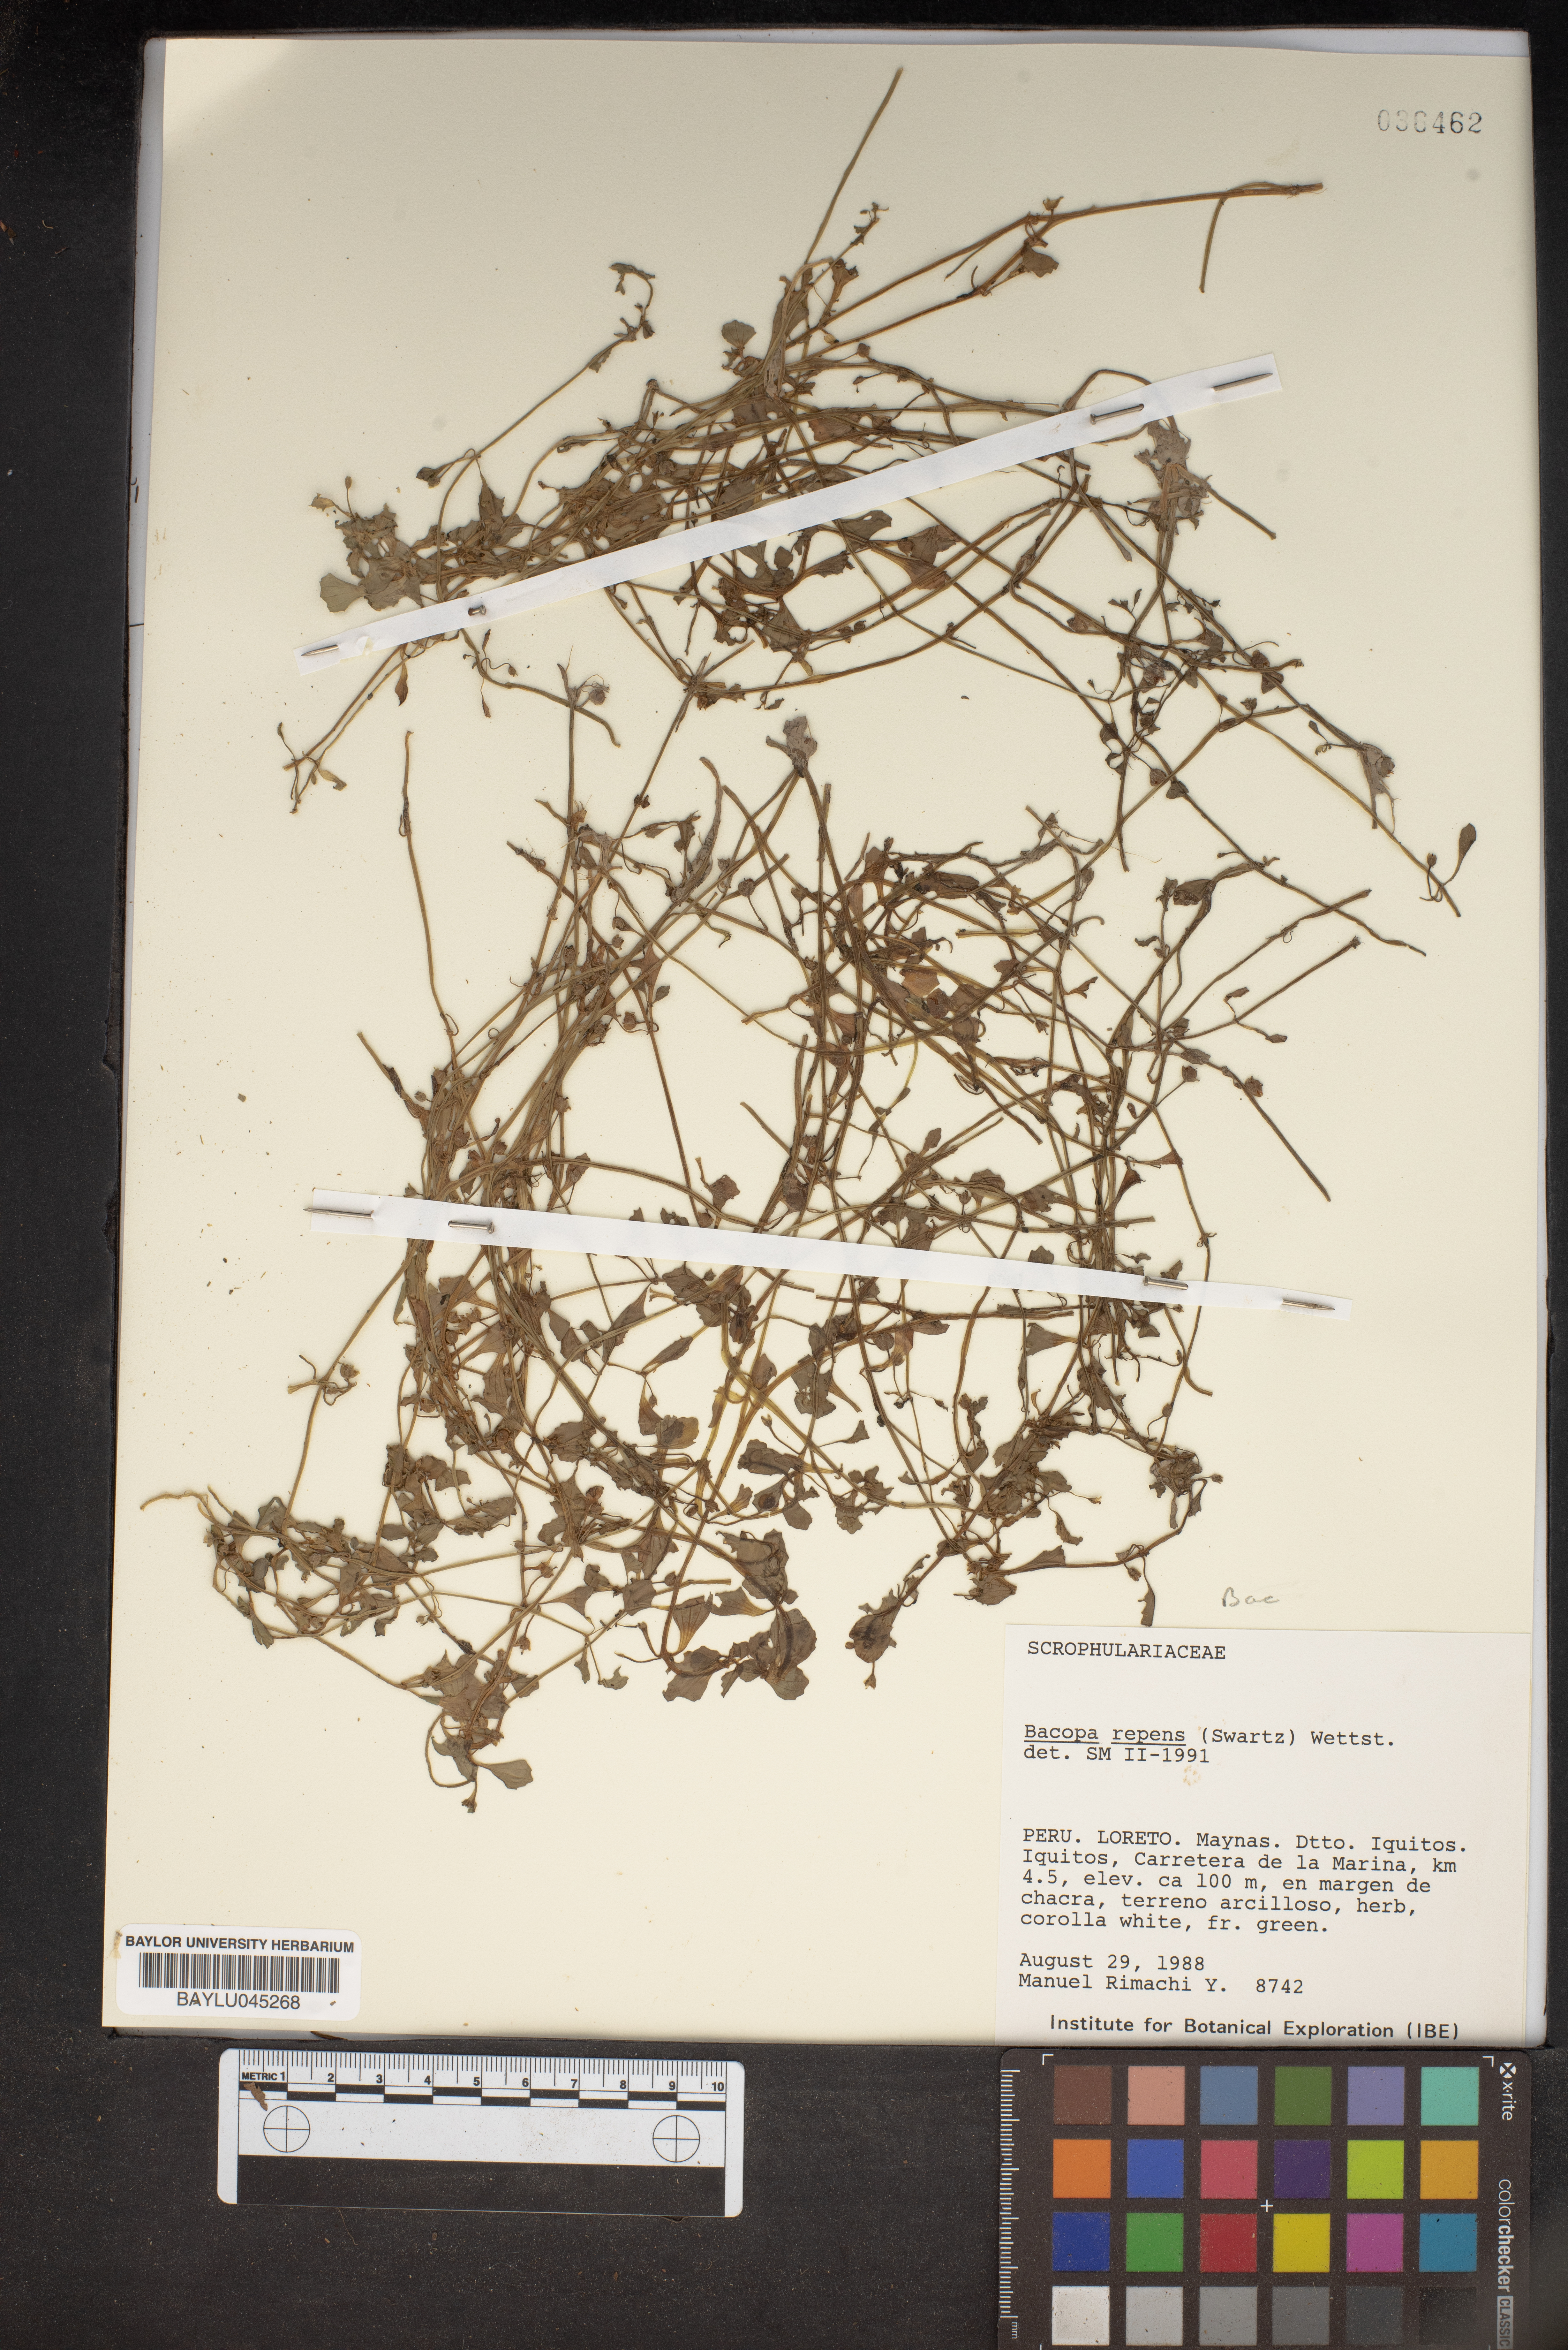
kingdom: Plantae
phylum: Tracheophyta
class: Magnoliopsida
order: Lamiales
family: Plantaginaceae
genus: Bacopa
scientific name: Bacopa repens
